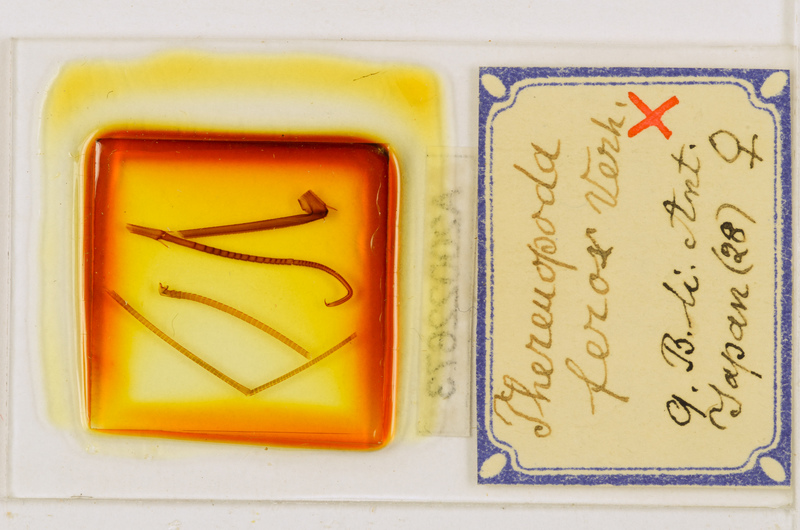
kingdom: Animalia
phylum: Arthropoda
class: Chilopoda
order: Scutigeromorpha
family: Scutigeridae
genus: Thereuopoda
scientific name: Thereuopoda clunifera
